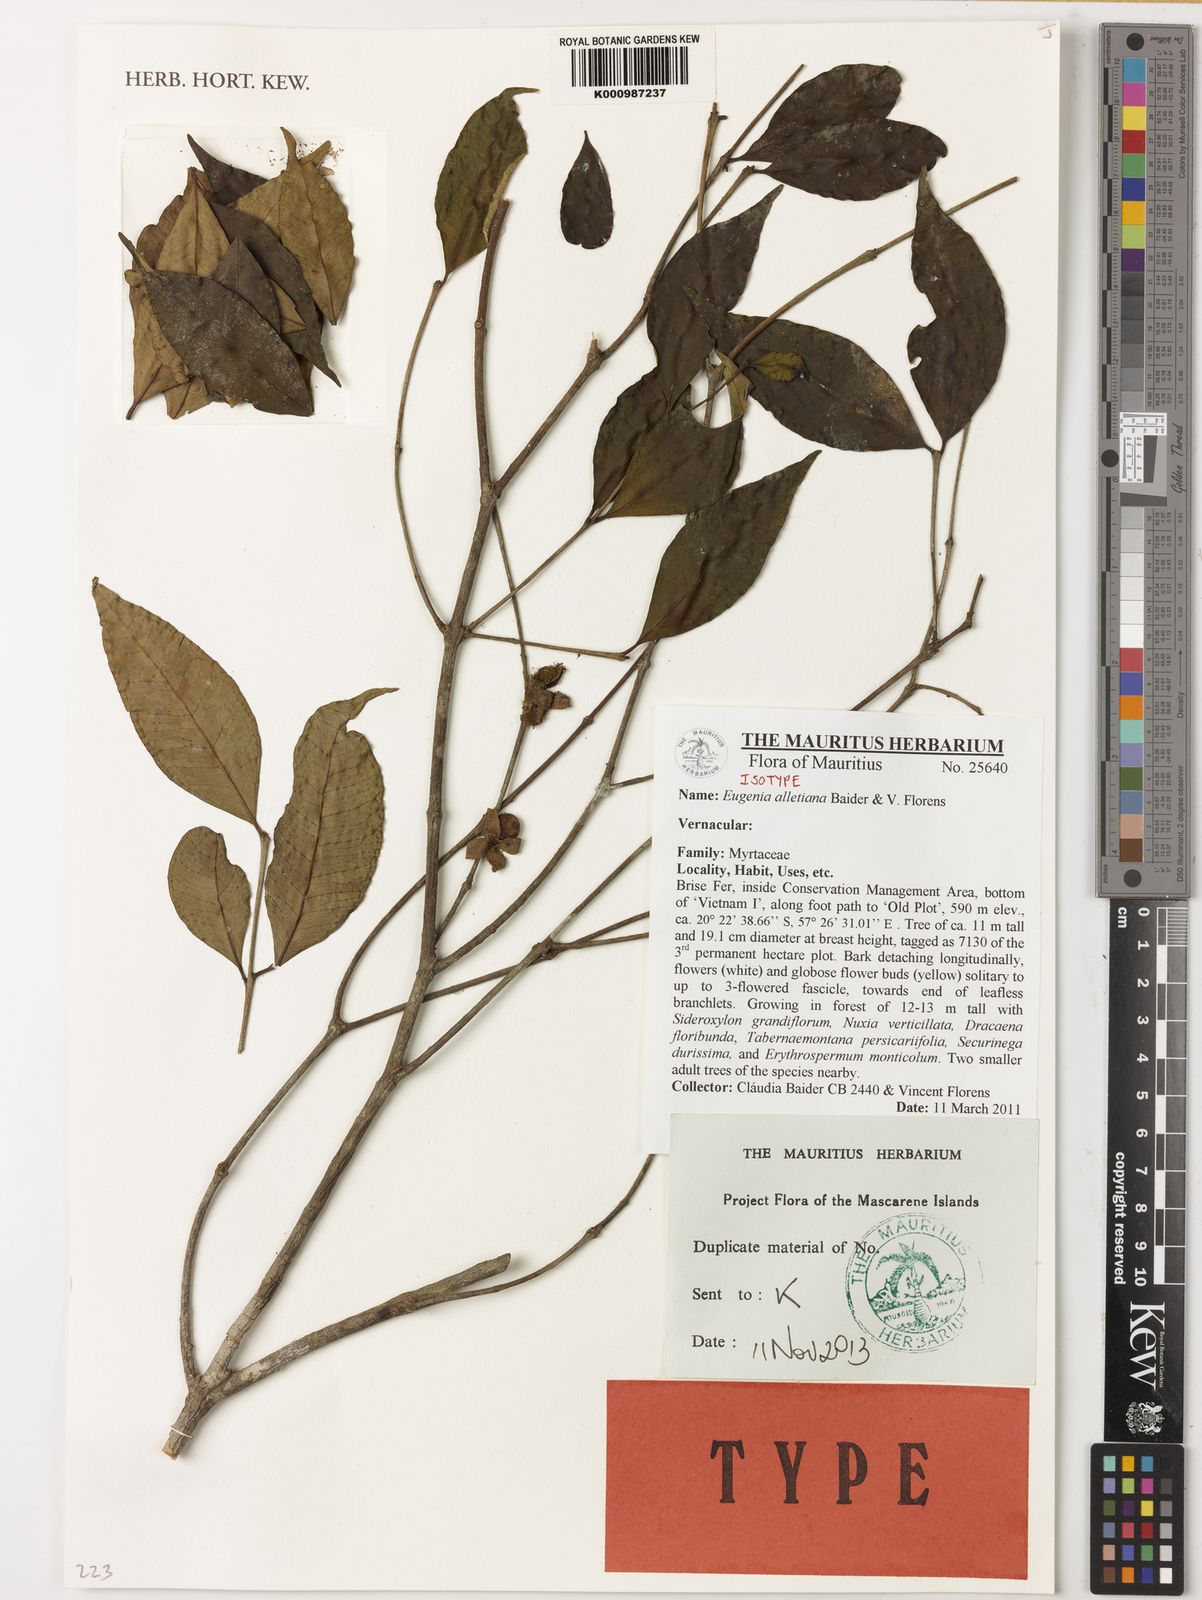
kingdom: Plantae
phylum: Tracheophyta
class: Magnoliopsida
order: Myrtales
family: Myrtaceae
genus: Eugenia
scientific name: Eugenia alletiana
